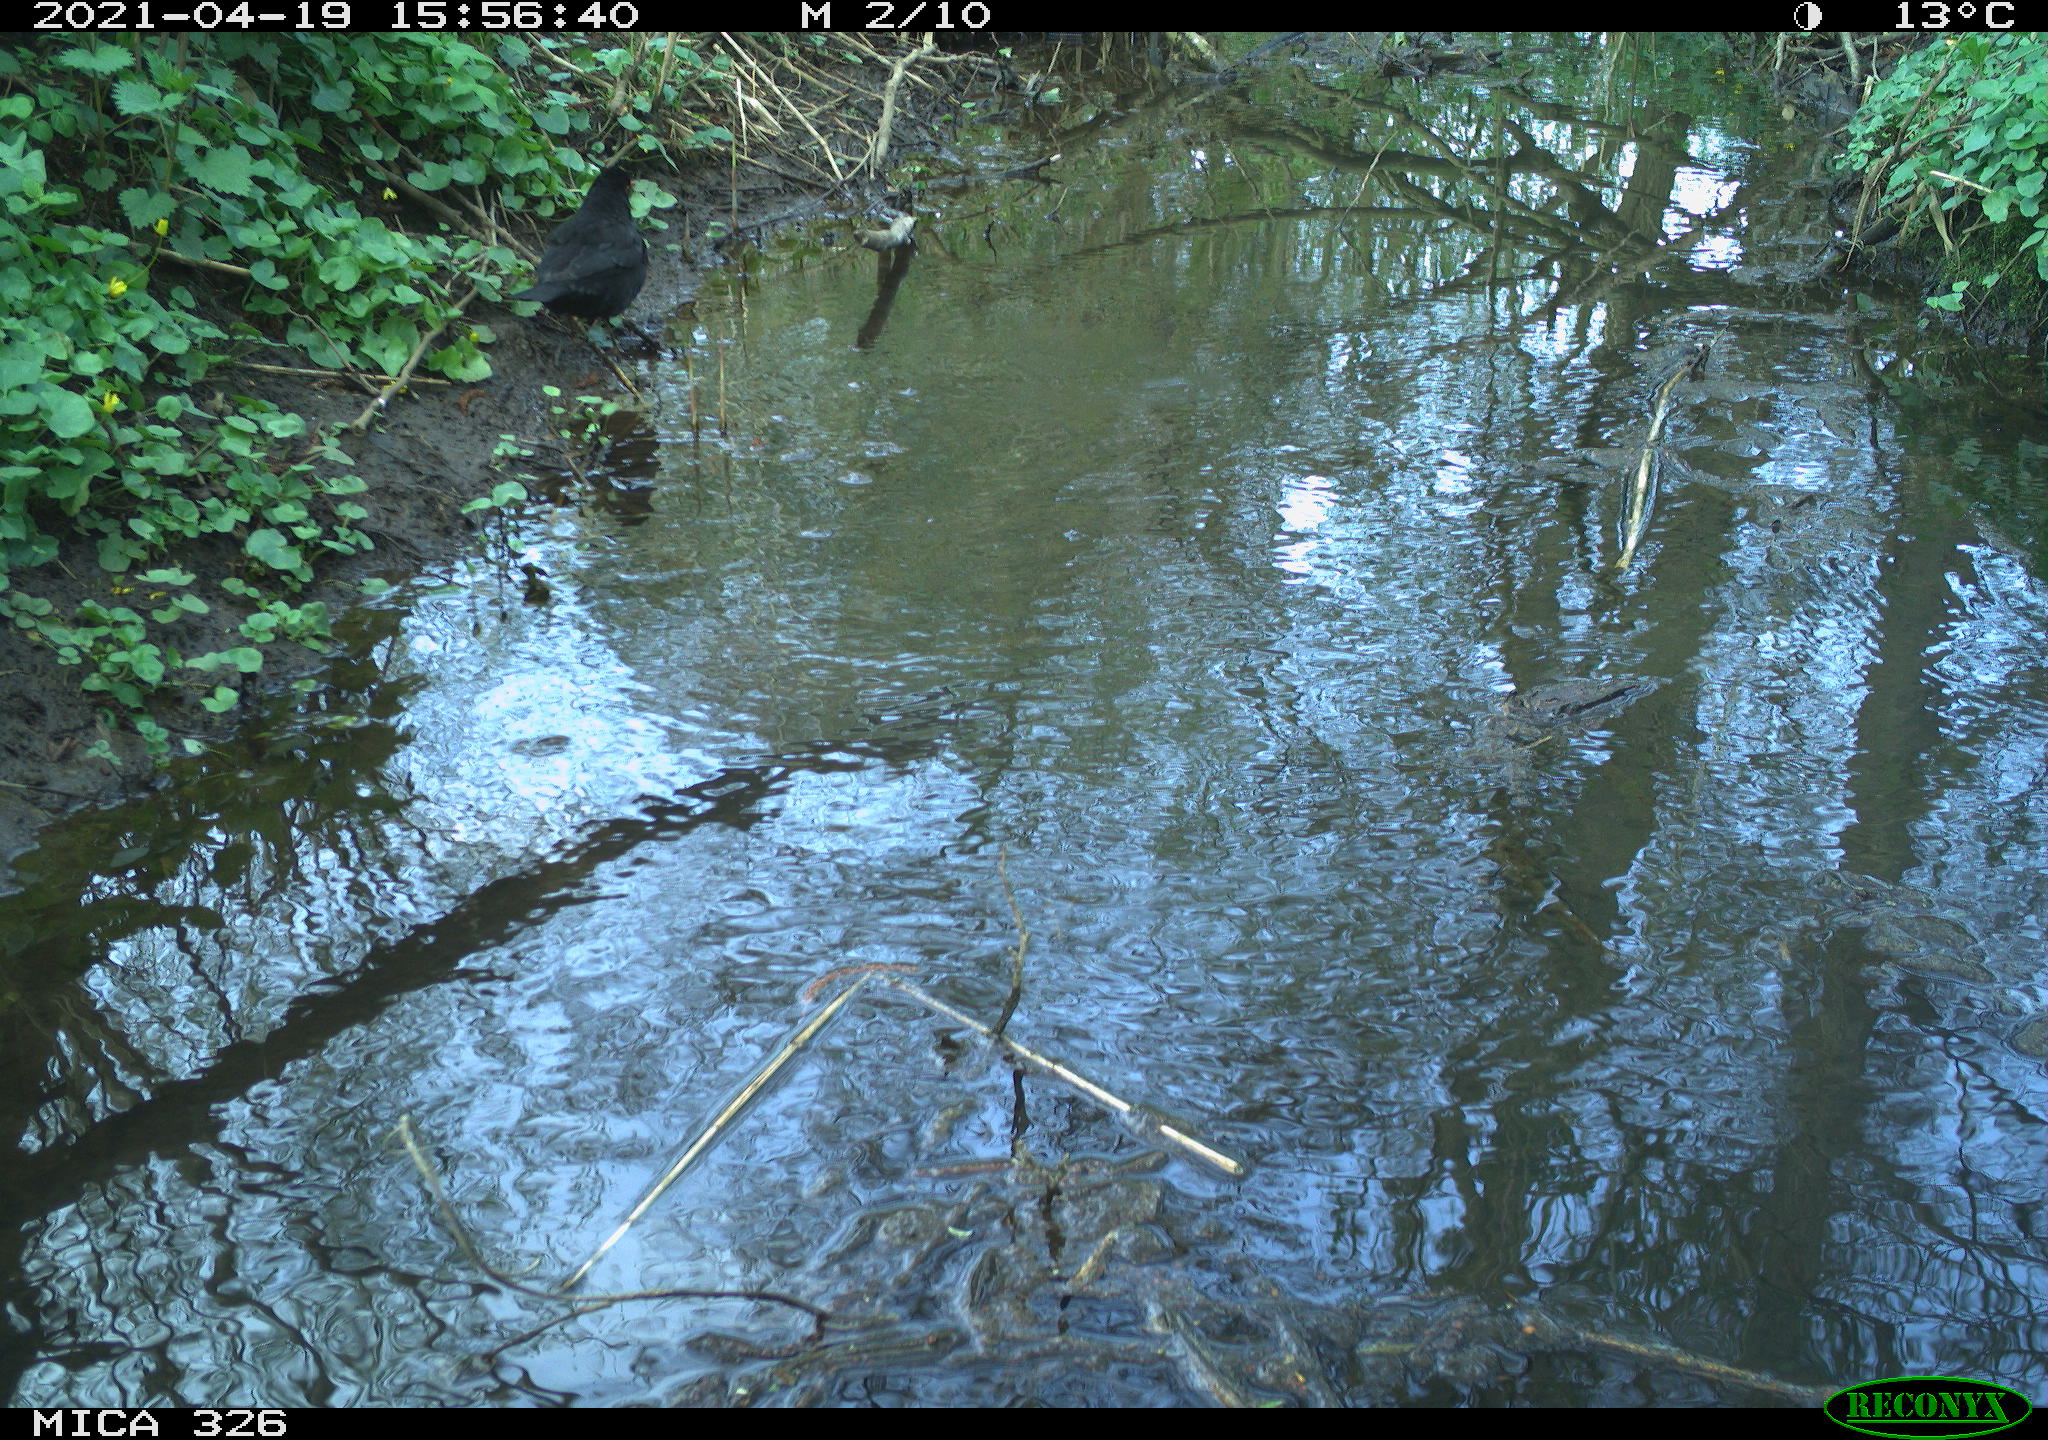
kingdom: Animalia
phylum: Chordata
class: Aves
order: Passeriformes
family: Turdidae
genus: Turdus
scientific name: Turdus merula
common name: Common blackbird
